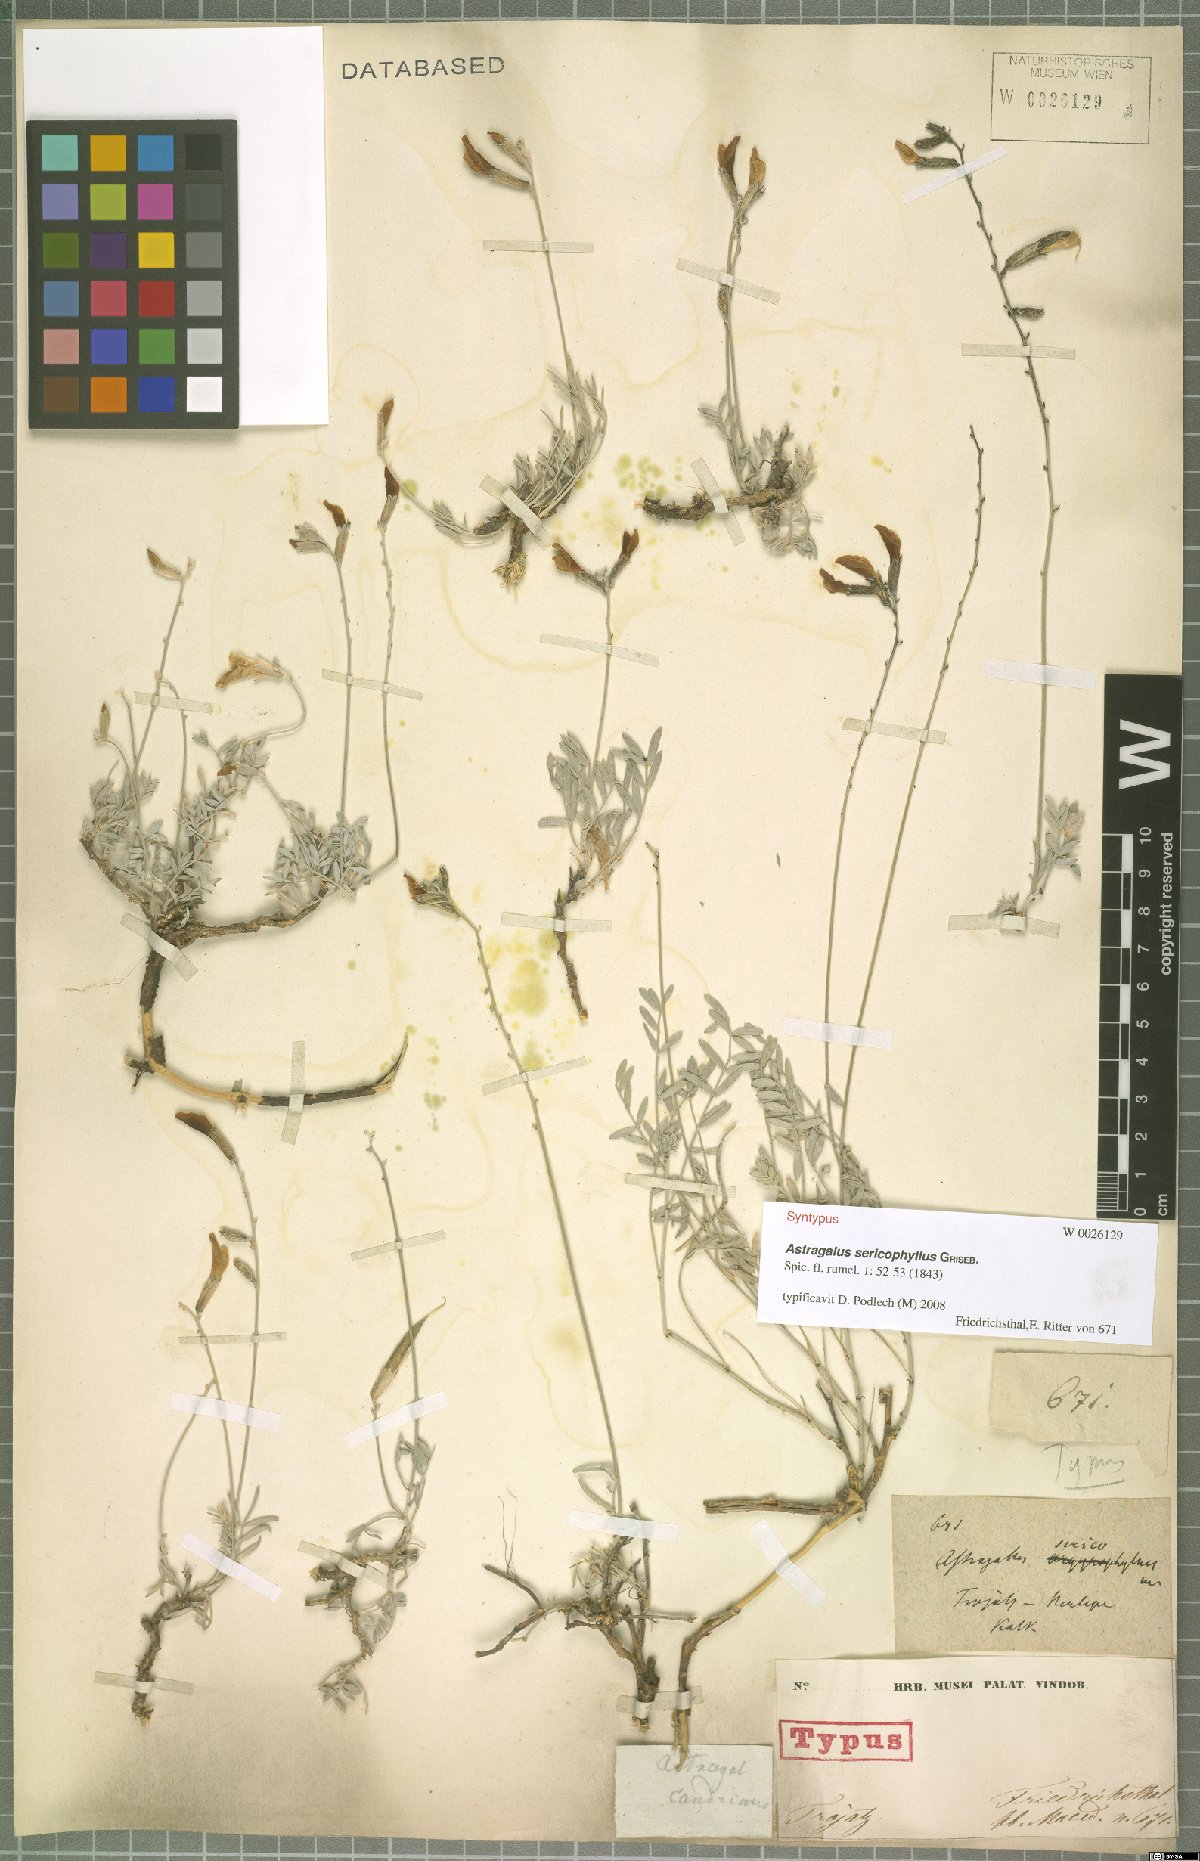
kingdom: Plantae
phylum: Tracheophyta
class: Magnoliopsida
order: Fabales
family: Fabaceae
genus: Astragalus
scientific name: Astragalus sericophyllus
